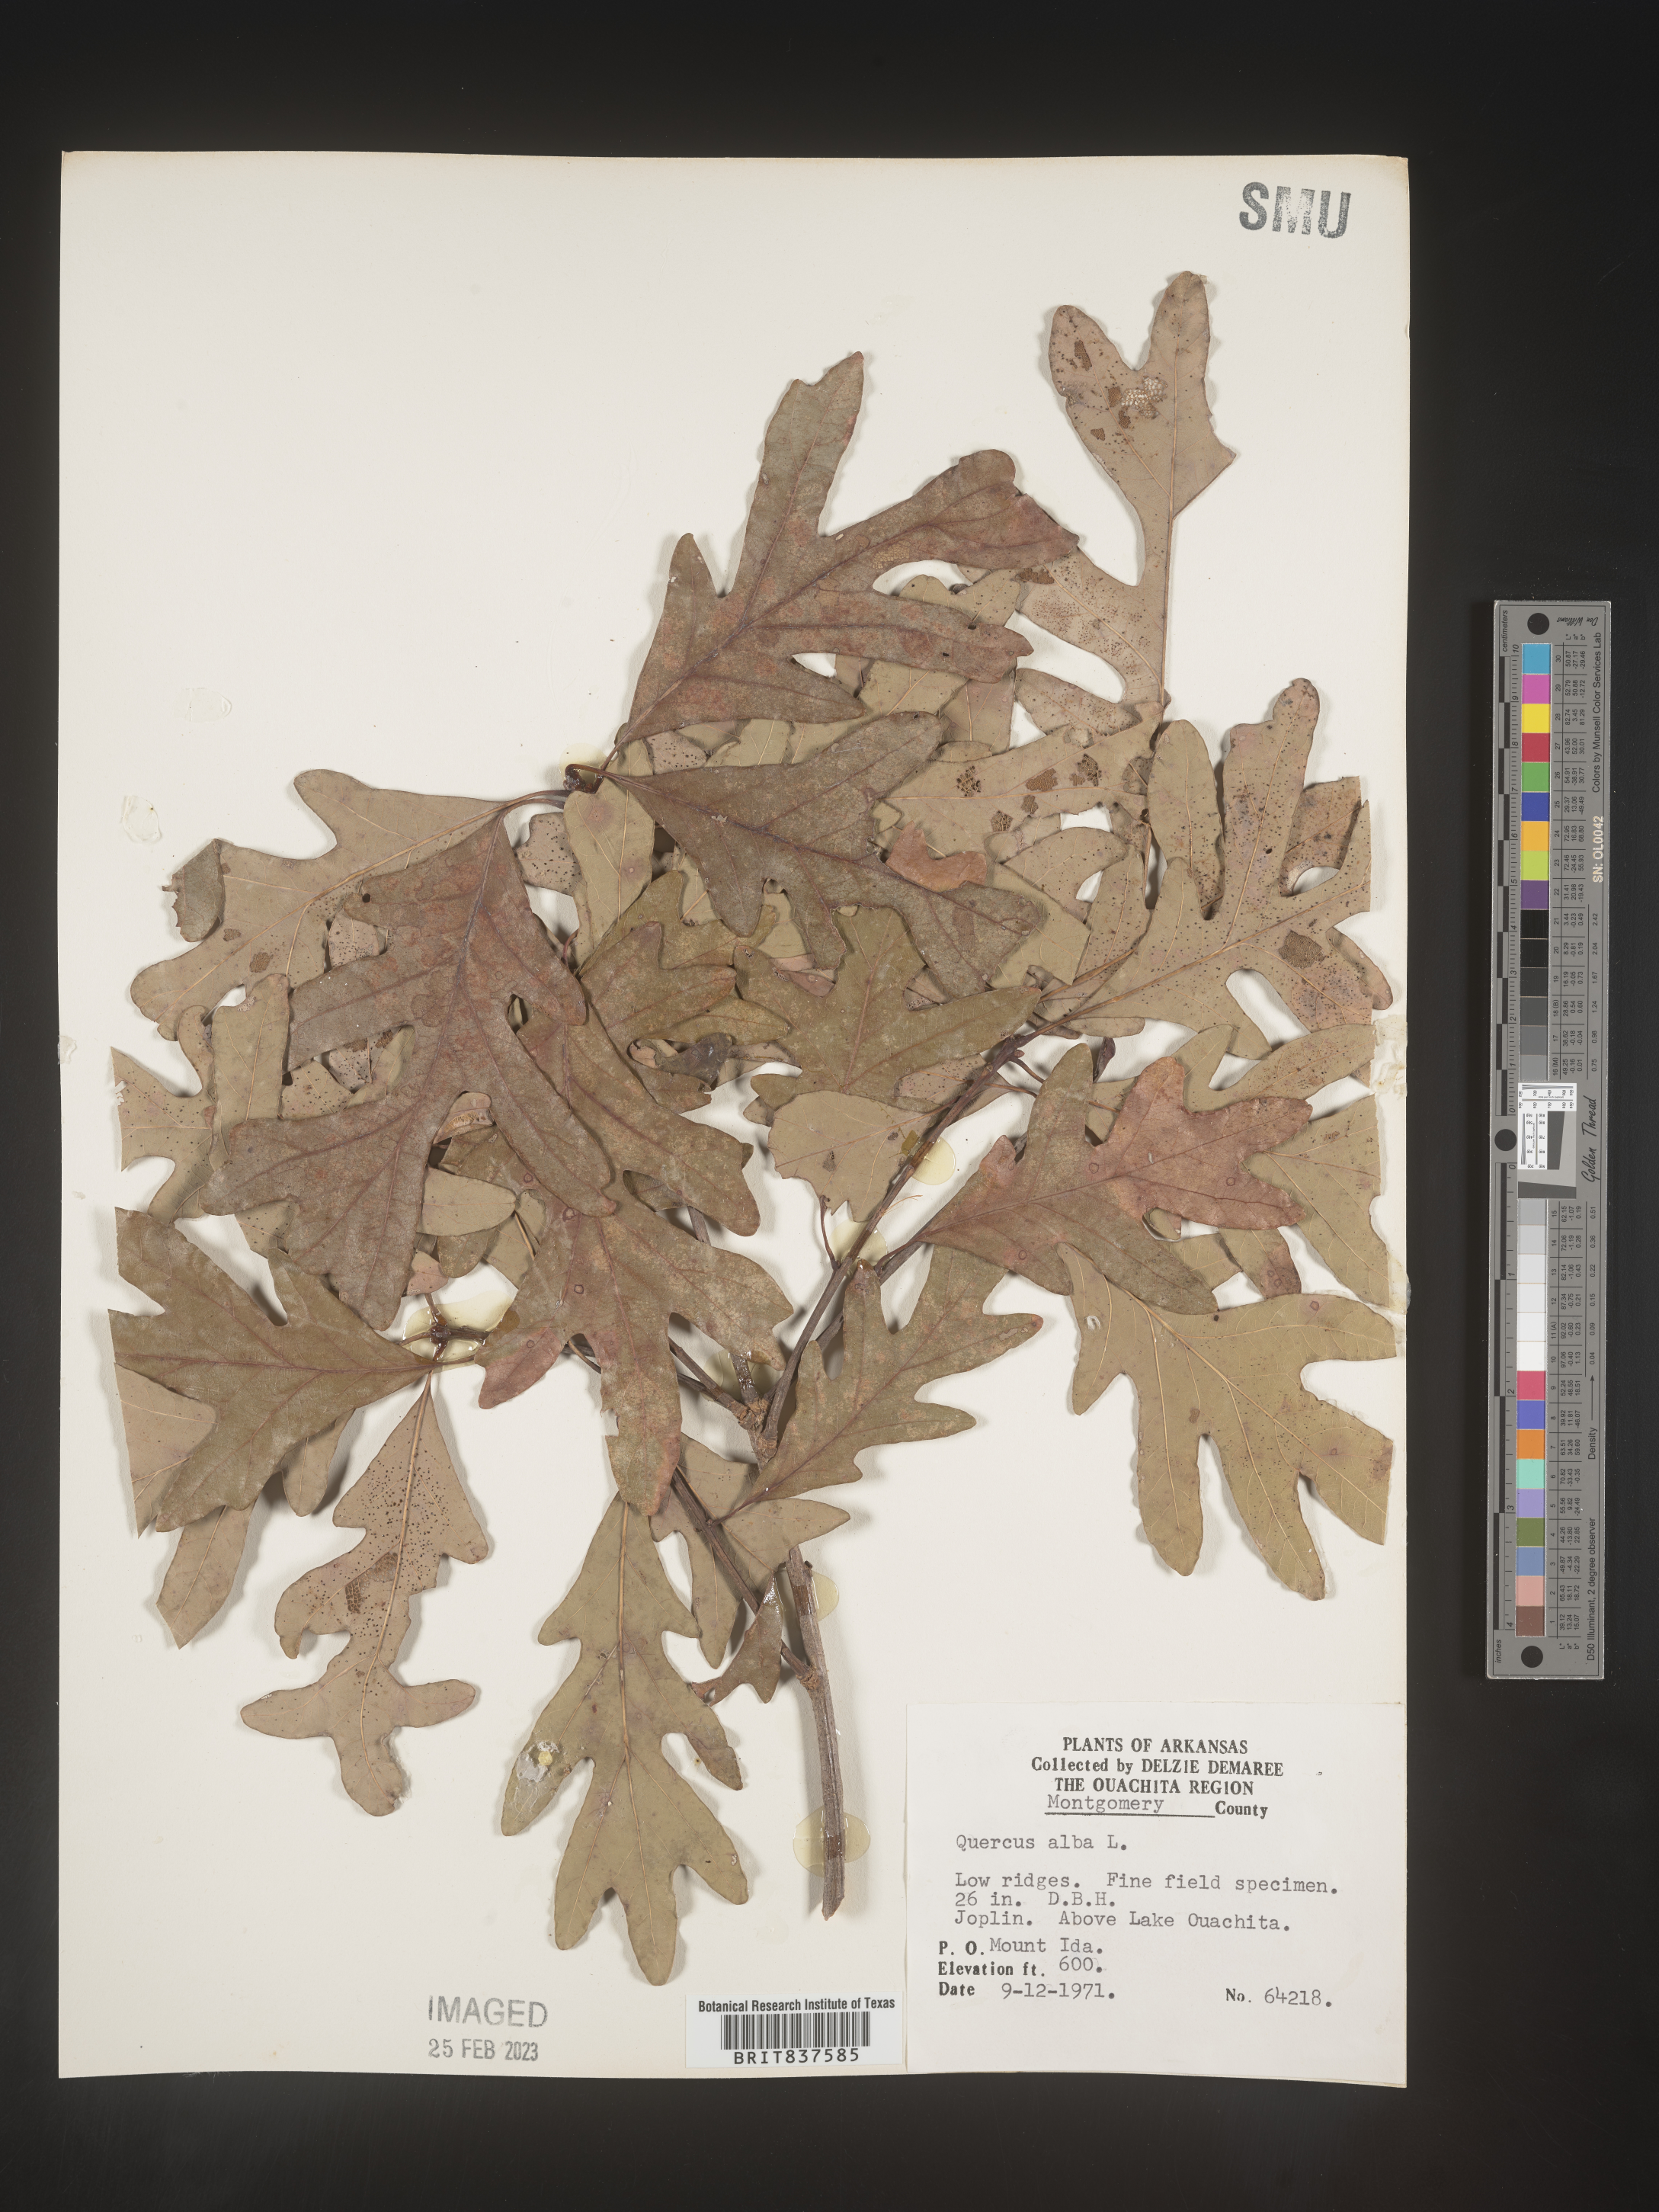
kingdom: Plantae
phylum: Tracheophyta
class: Magnoliopsida
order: Fagales
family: Fagaceae
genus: Quercus
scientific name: Quercus alba
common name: White oak
